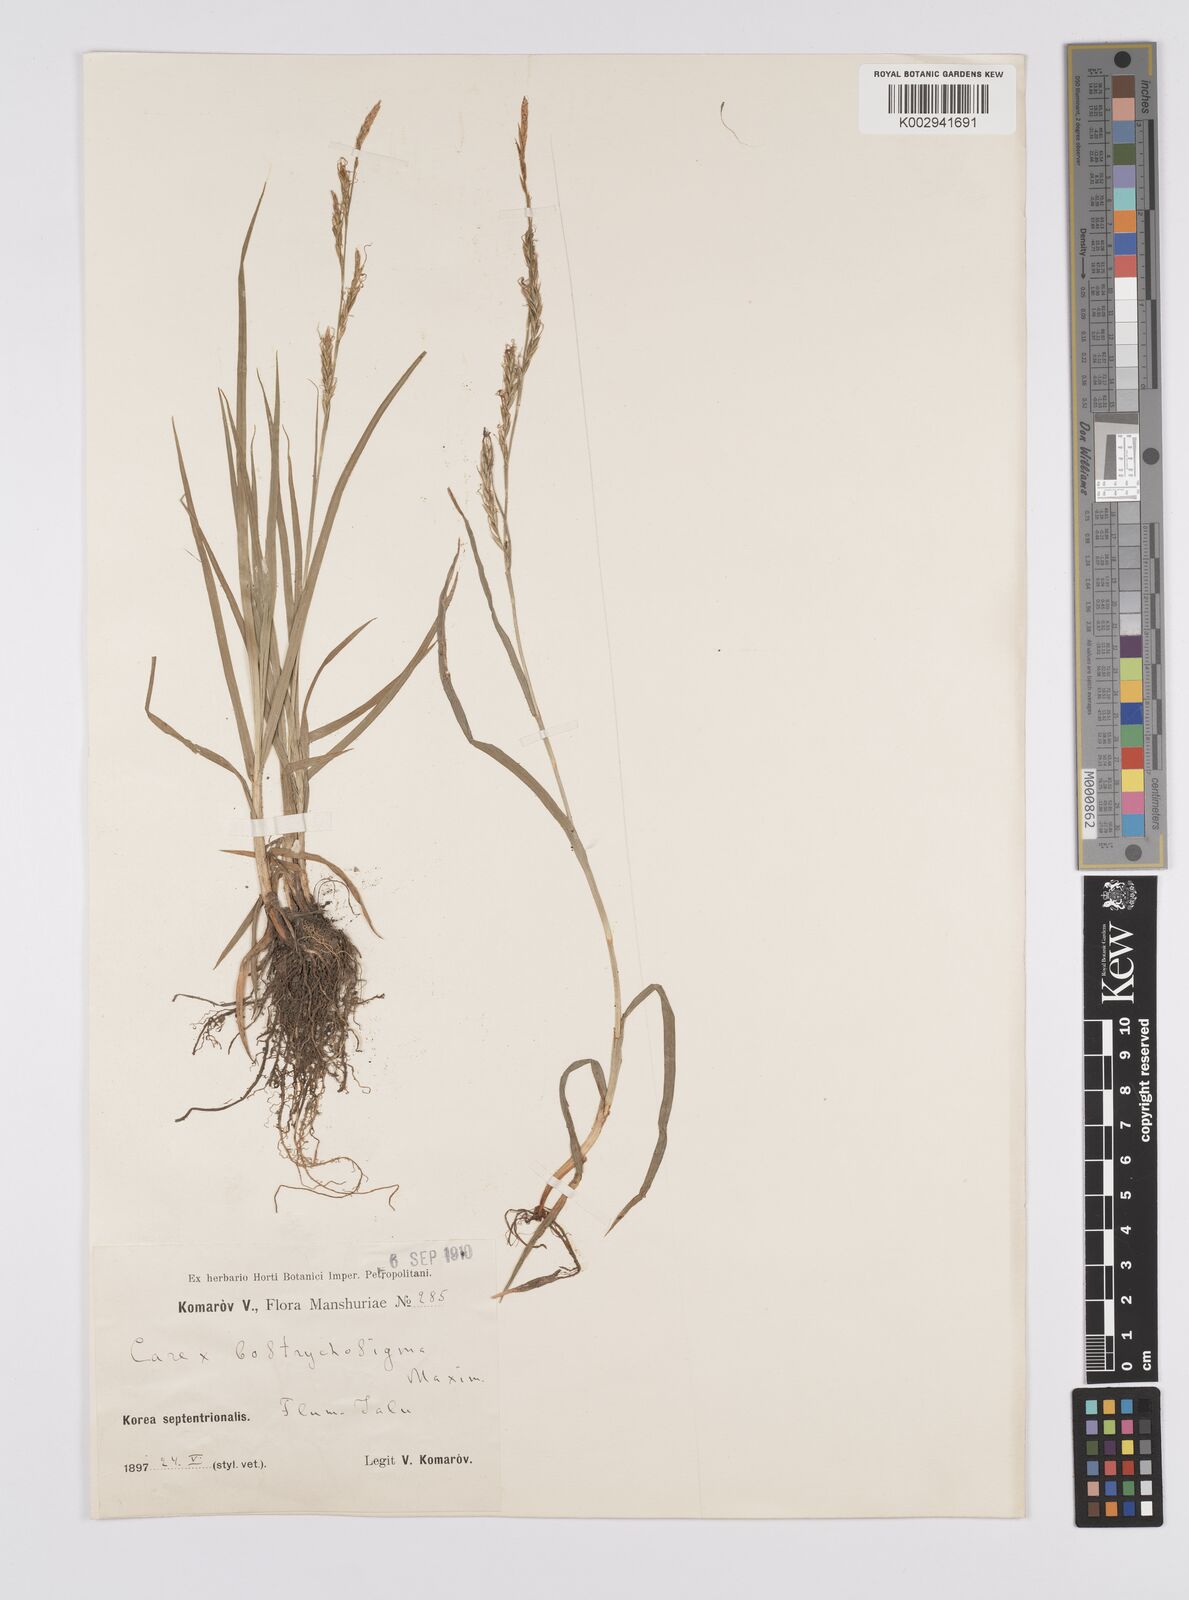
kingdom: Plantae
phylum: Tracheophyta
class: Liliopsida
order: Poales
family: Cyperaceae
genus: Carex
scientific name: Carex bostrychostigma
